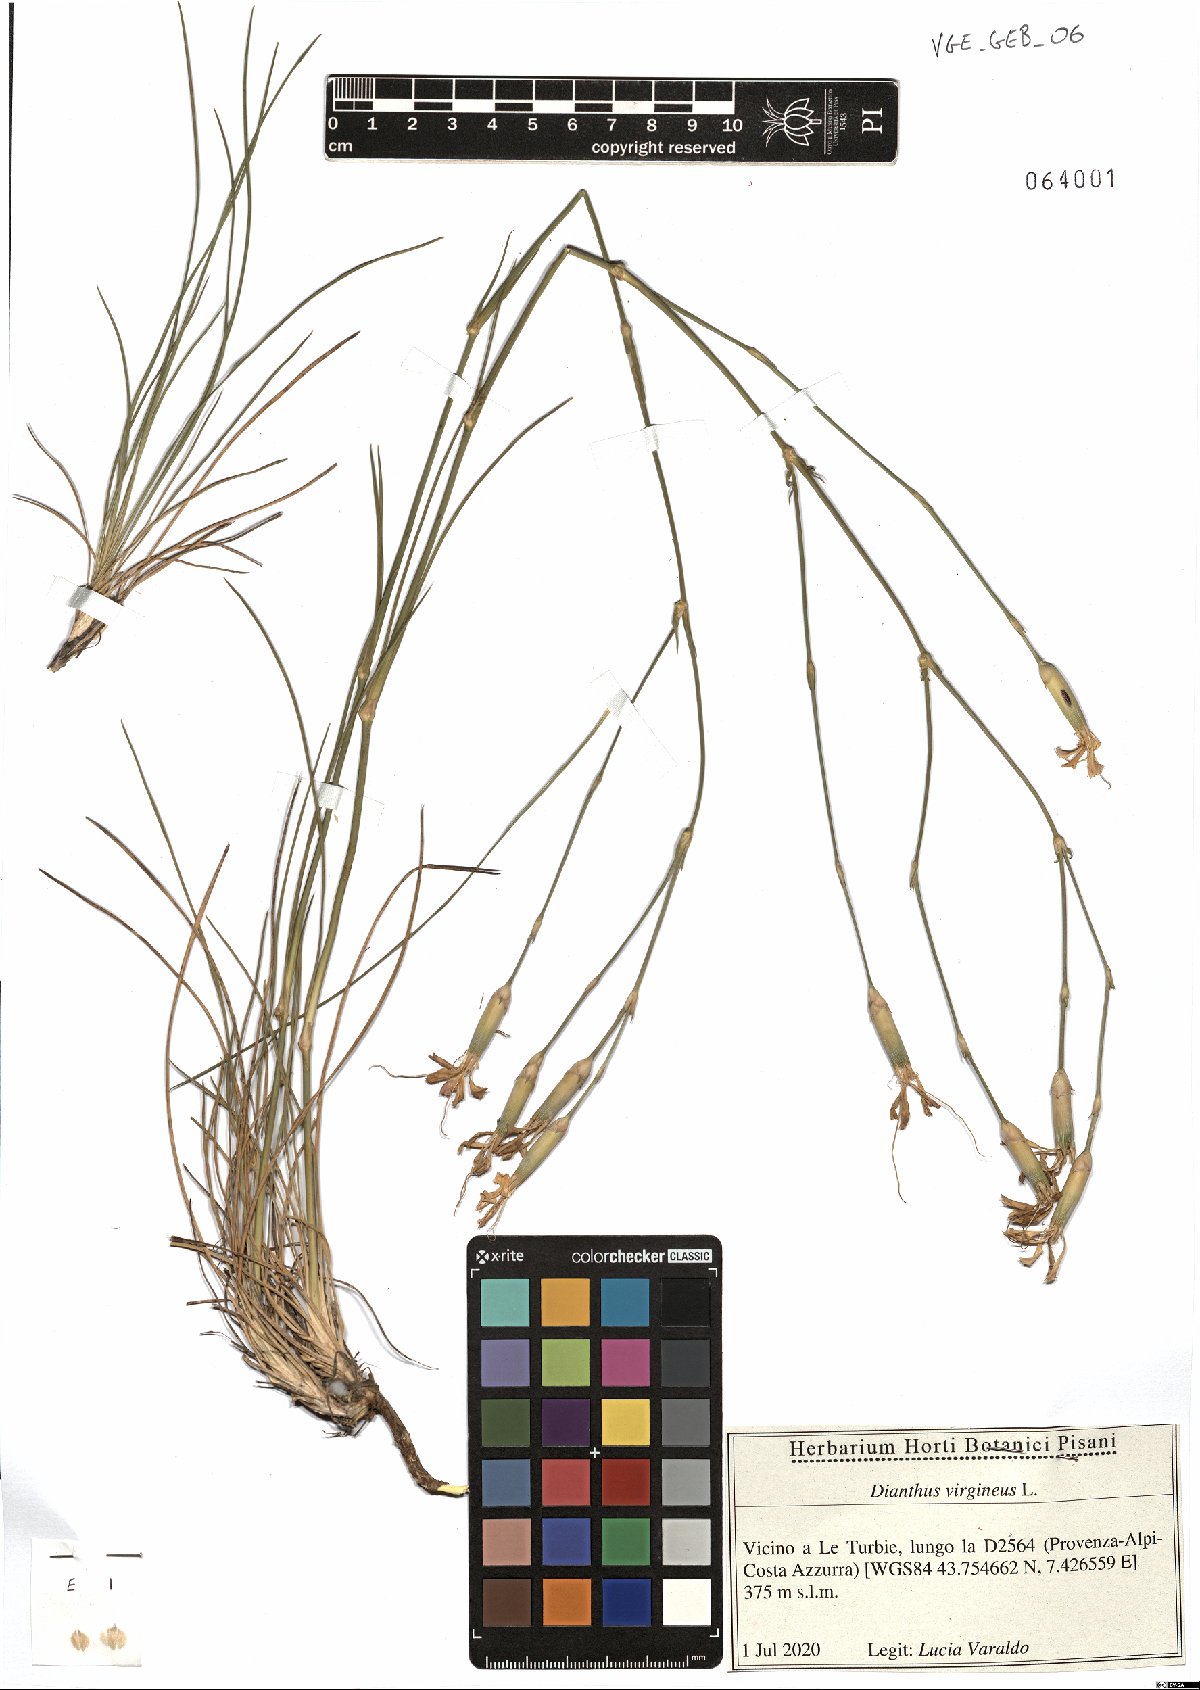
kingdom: Plantae
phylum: Tracheophyta
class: Magnoliopsida
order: Caryophyllales
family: Caryophyllaceae
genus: Dianthus
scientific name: Dianthus virgineus
